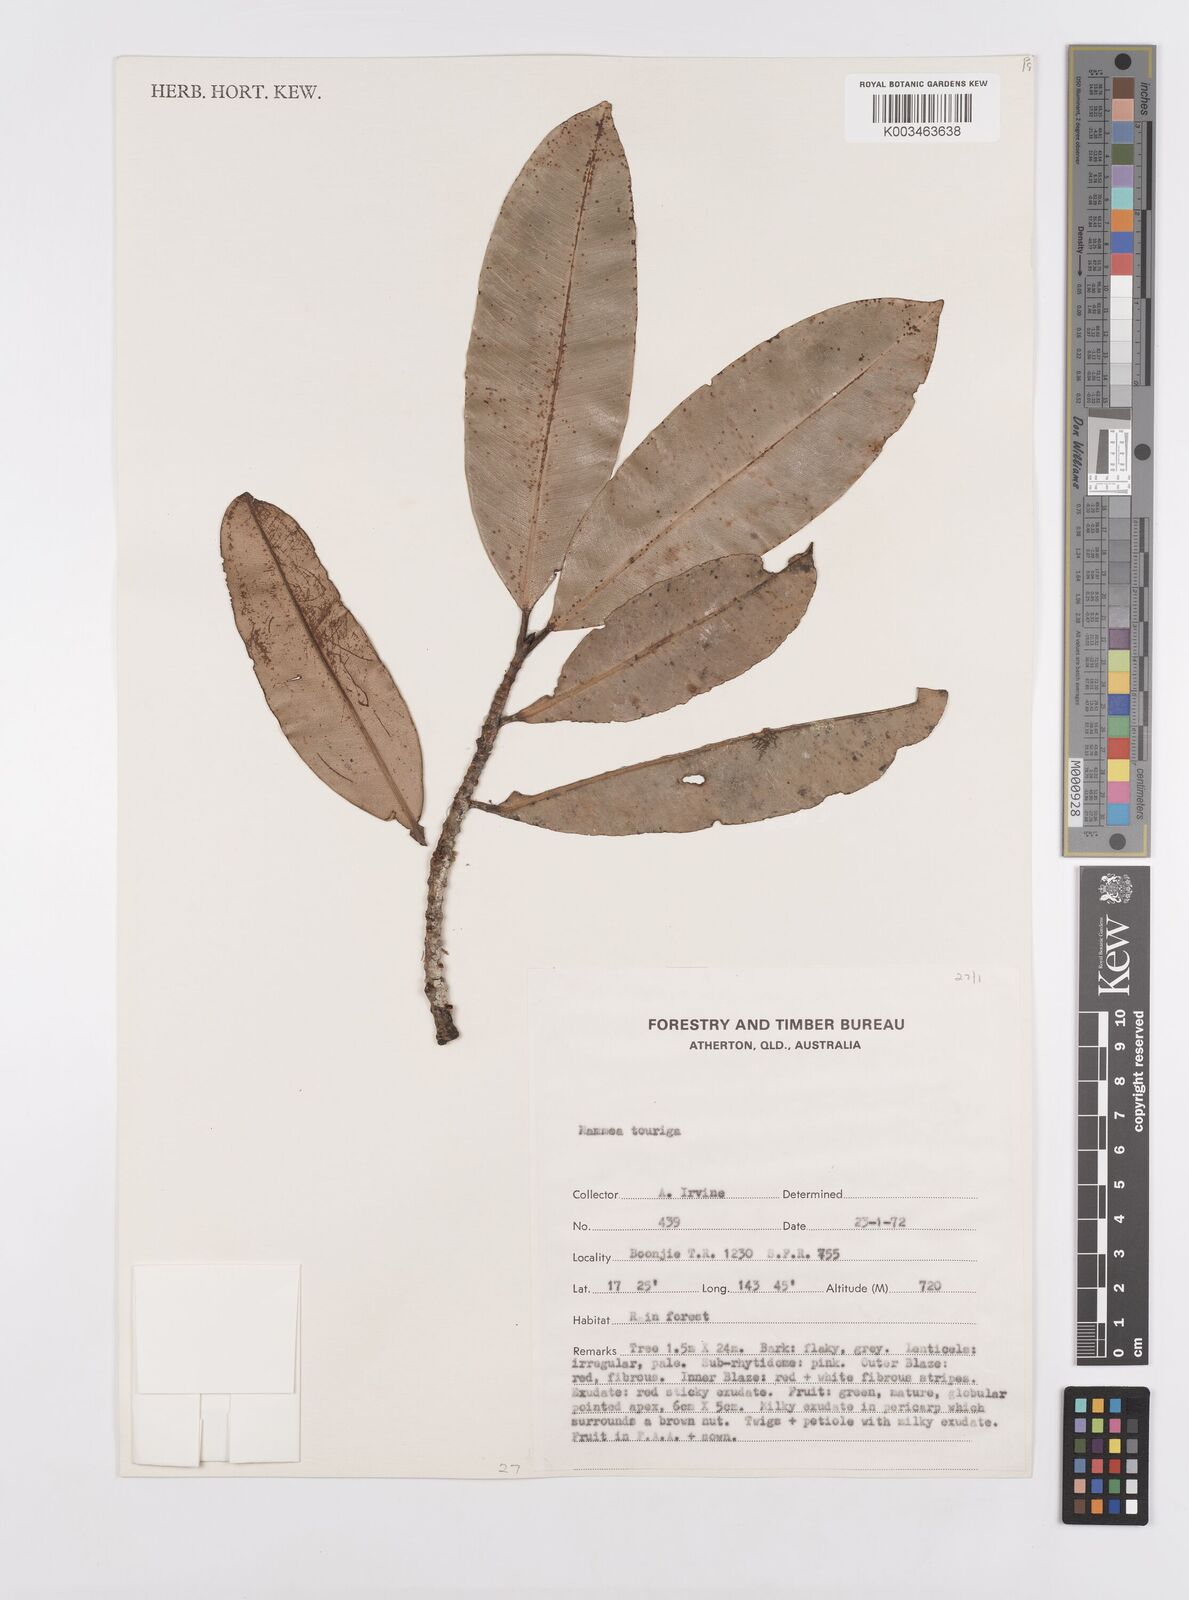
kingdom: Plantae
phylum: Tracheophyta
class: Magnoliopsida
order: Malpighiales
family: Calophyllaceae
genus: Mammea
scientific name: Mammea touriga
